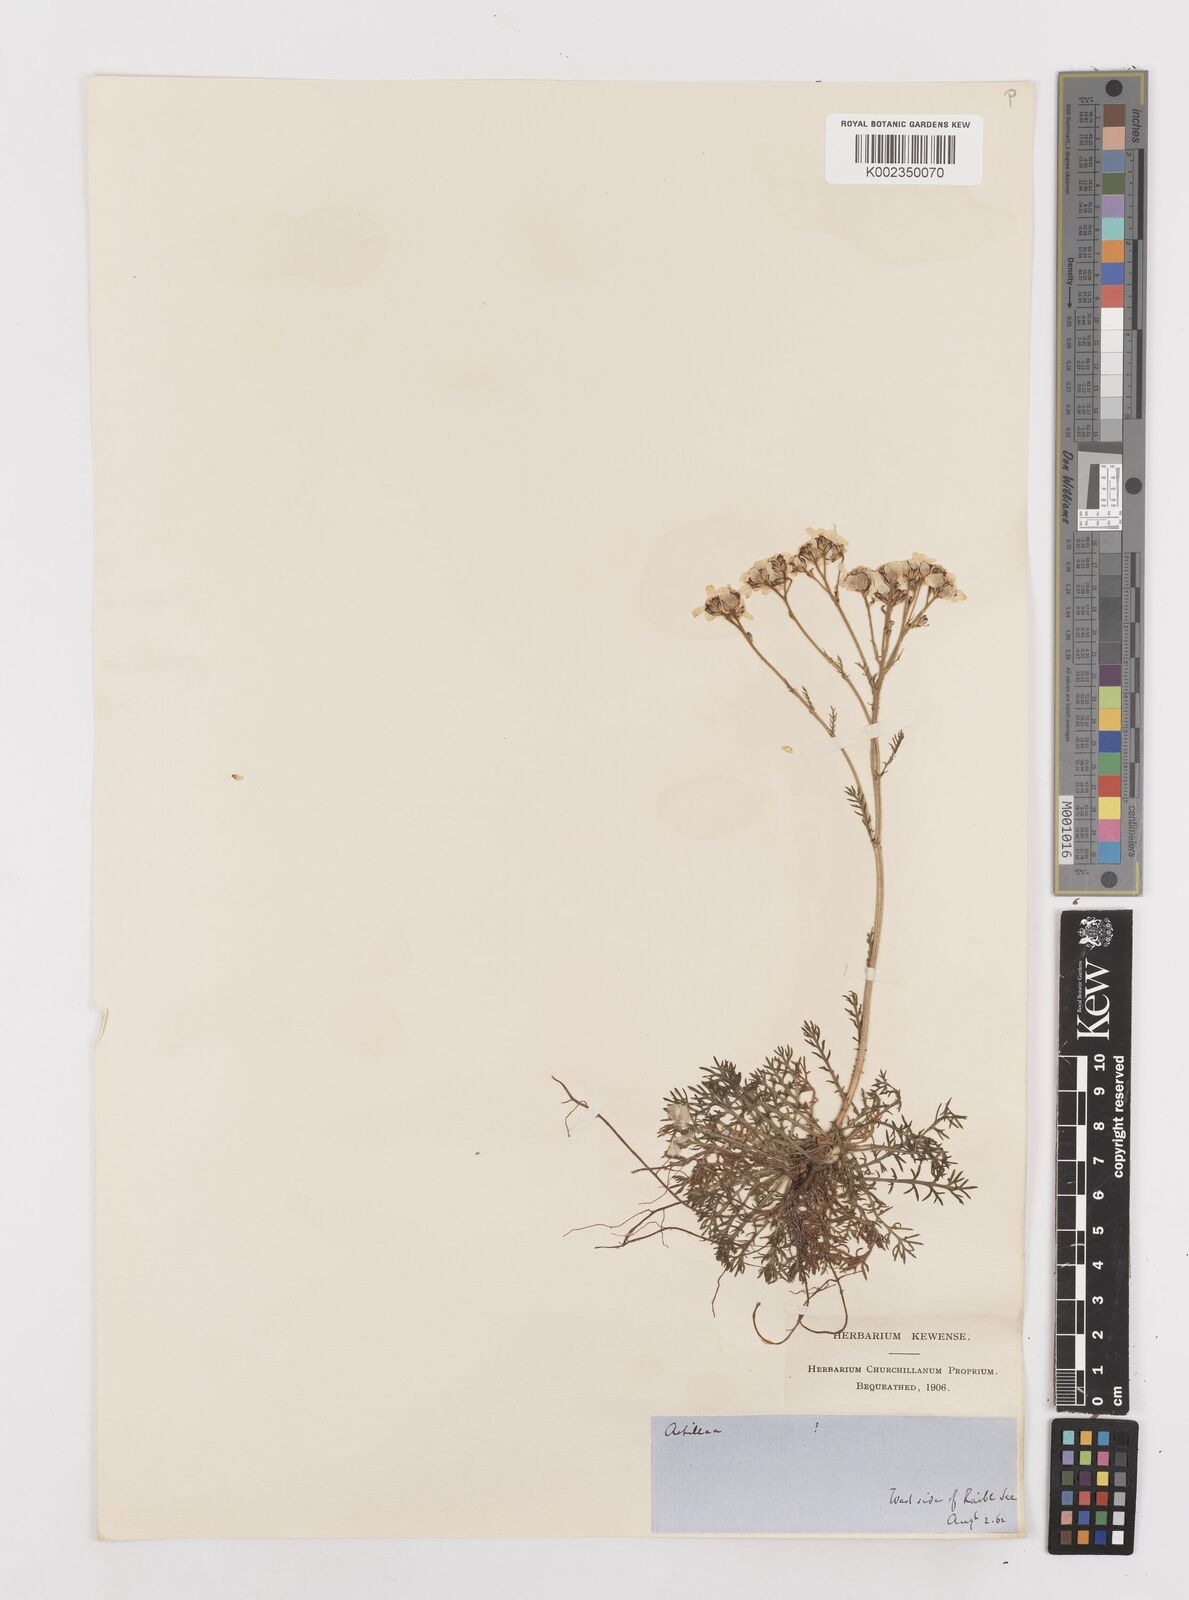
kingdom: Plantae
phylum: Tracheophyta
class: Magnoliopsida
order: Asterales
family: Asteraceae
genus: Achillea
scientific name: Achillea atrata
